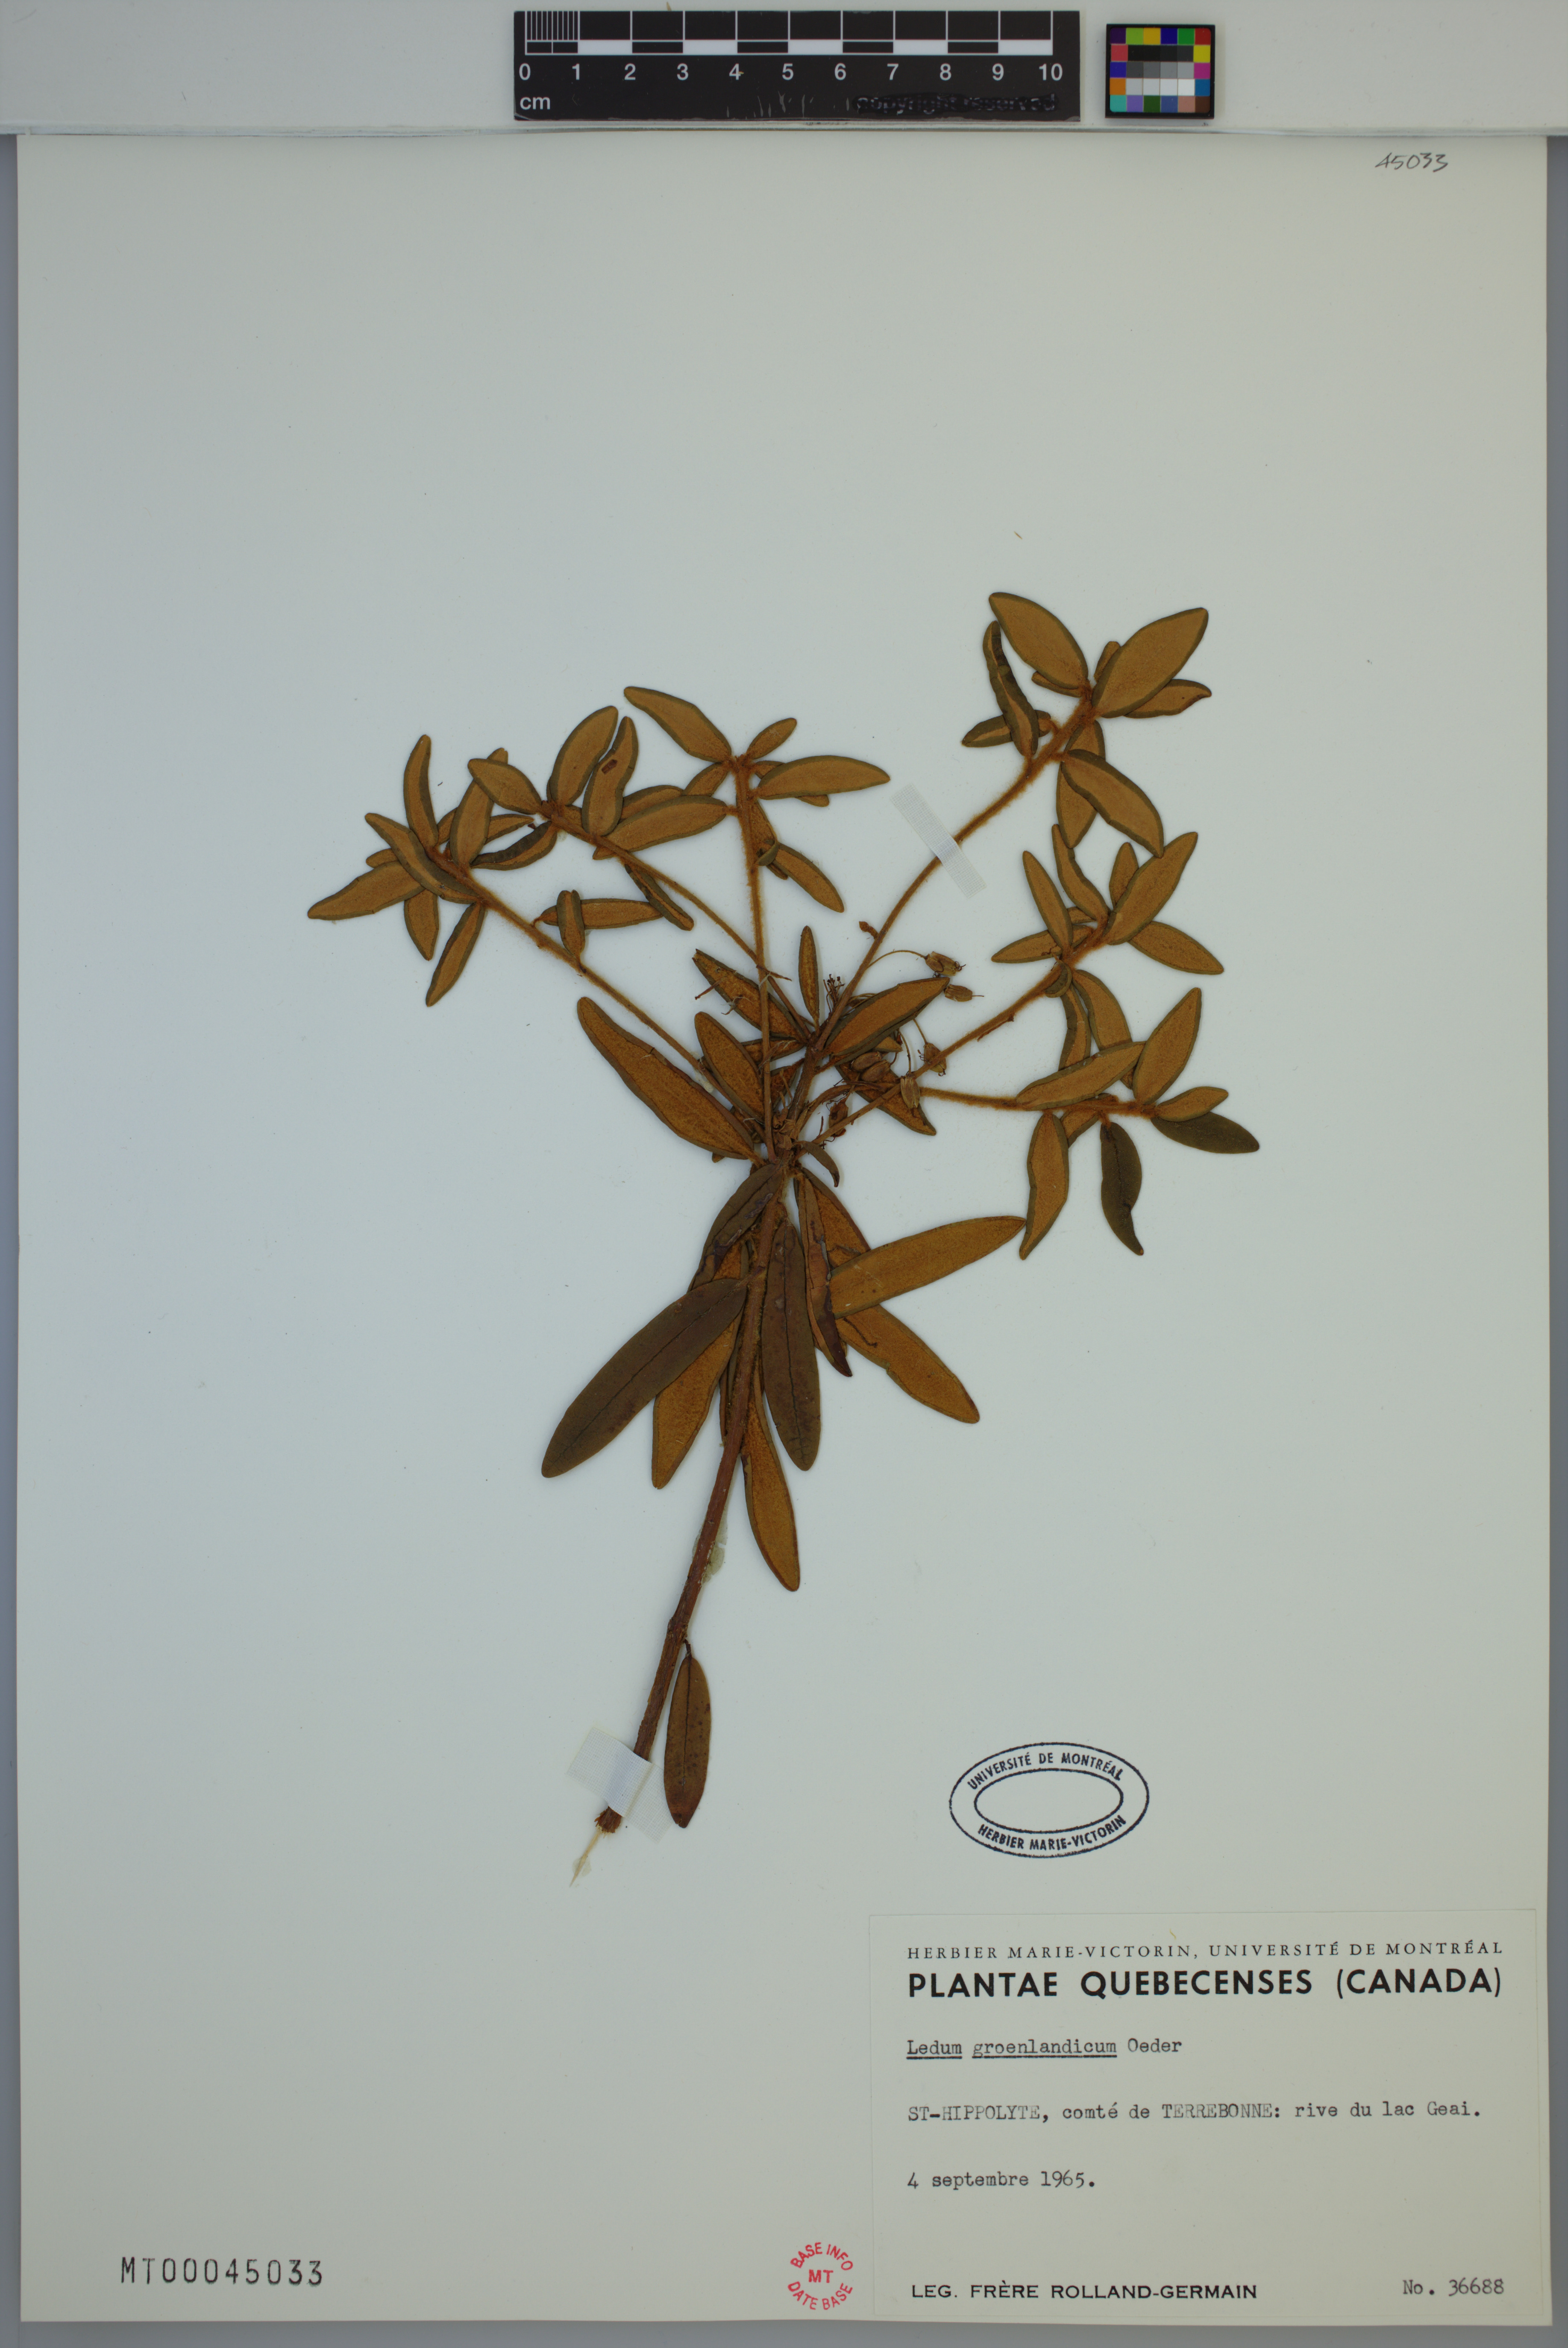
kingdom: Plantae
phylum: Tracheophyta
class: Magnoliopsida
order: Ericales
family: Ericaceae
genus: Rhododendron
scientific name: Rhododendron groenlandicum
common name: Bog labrador tea
